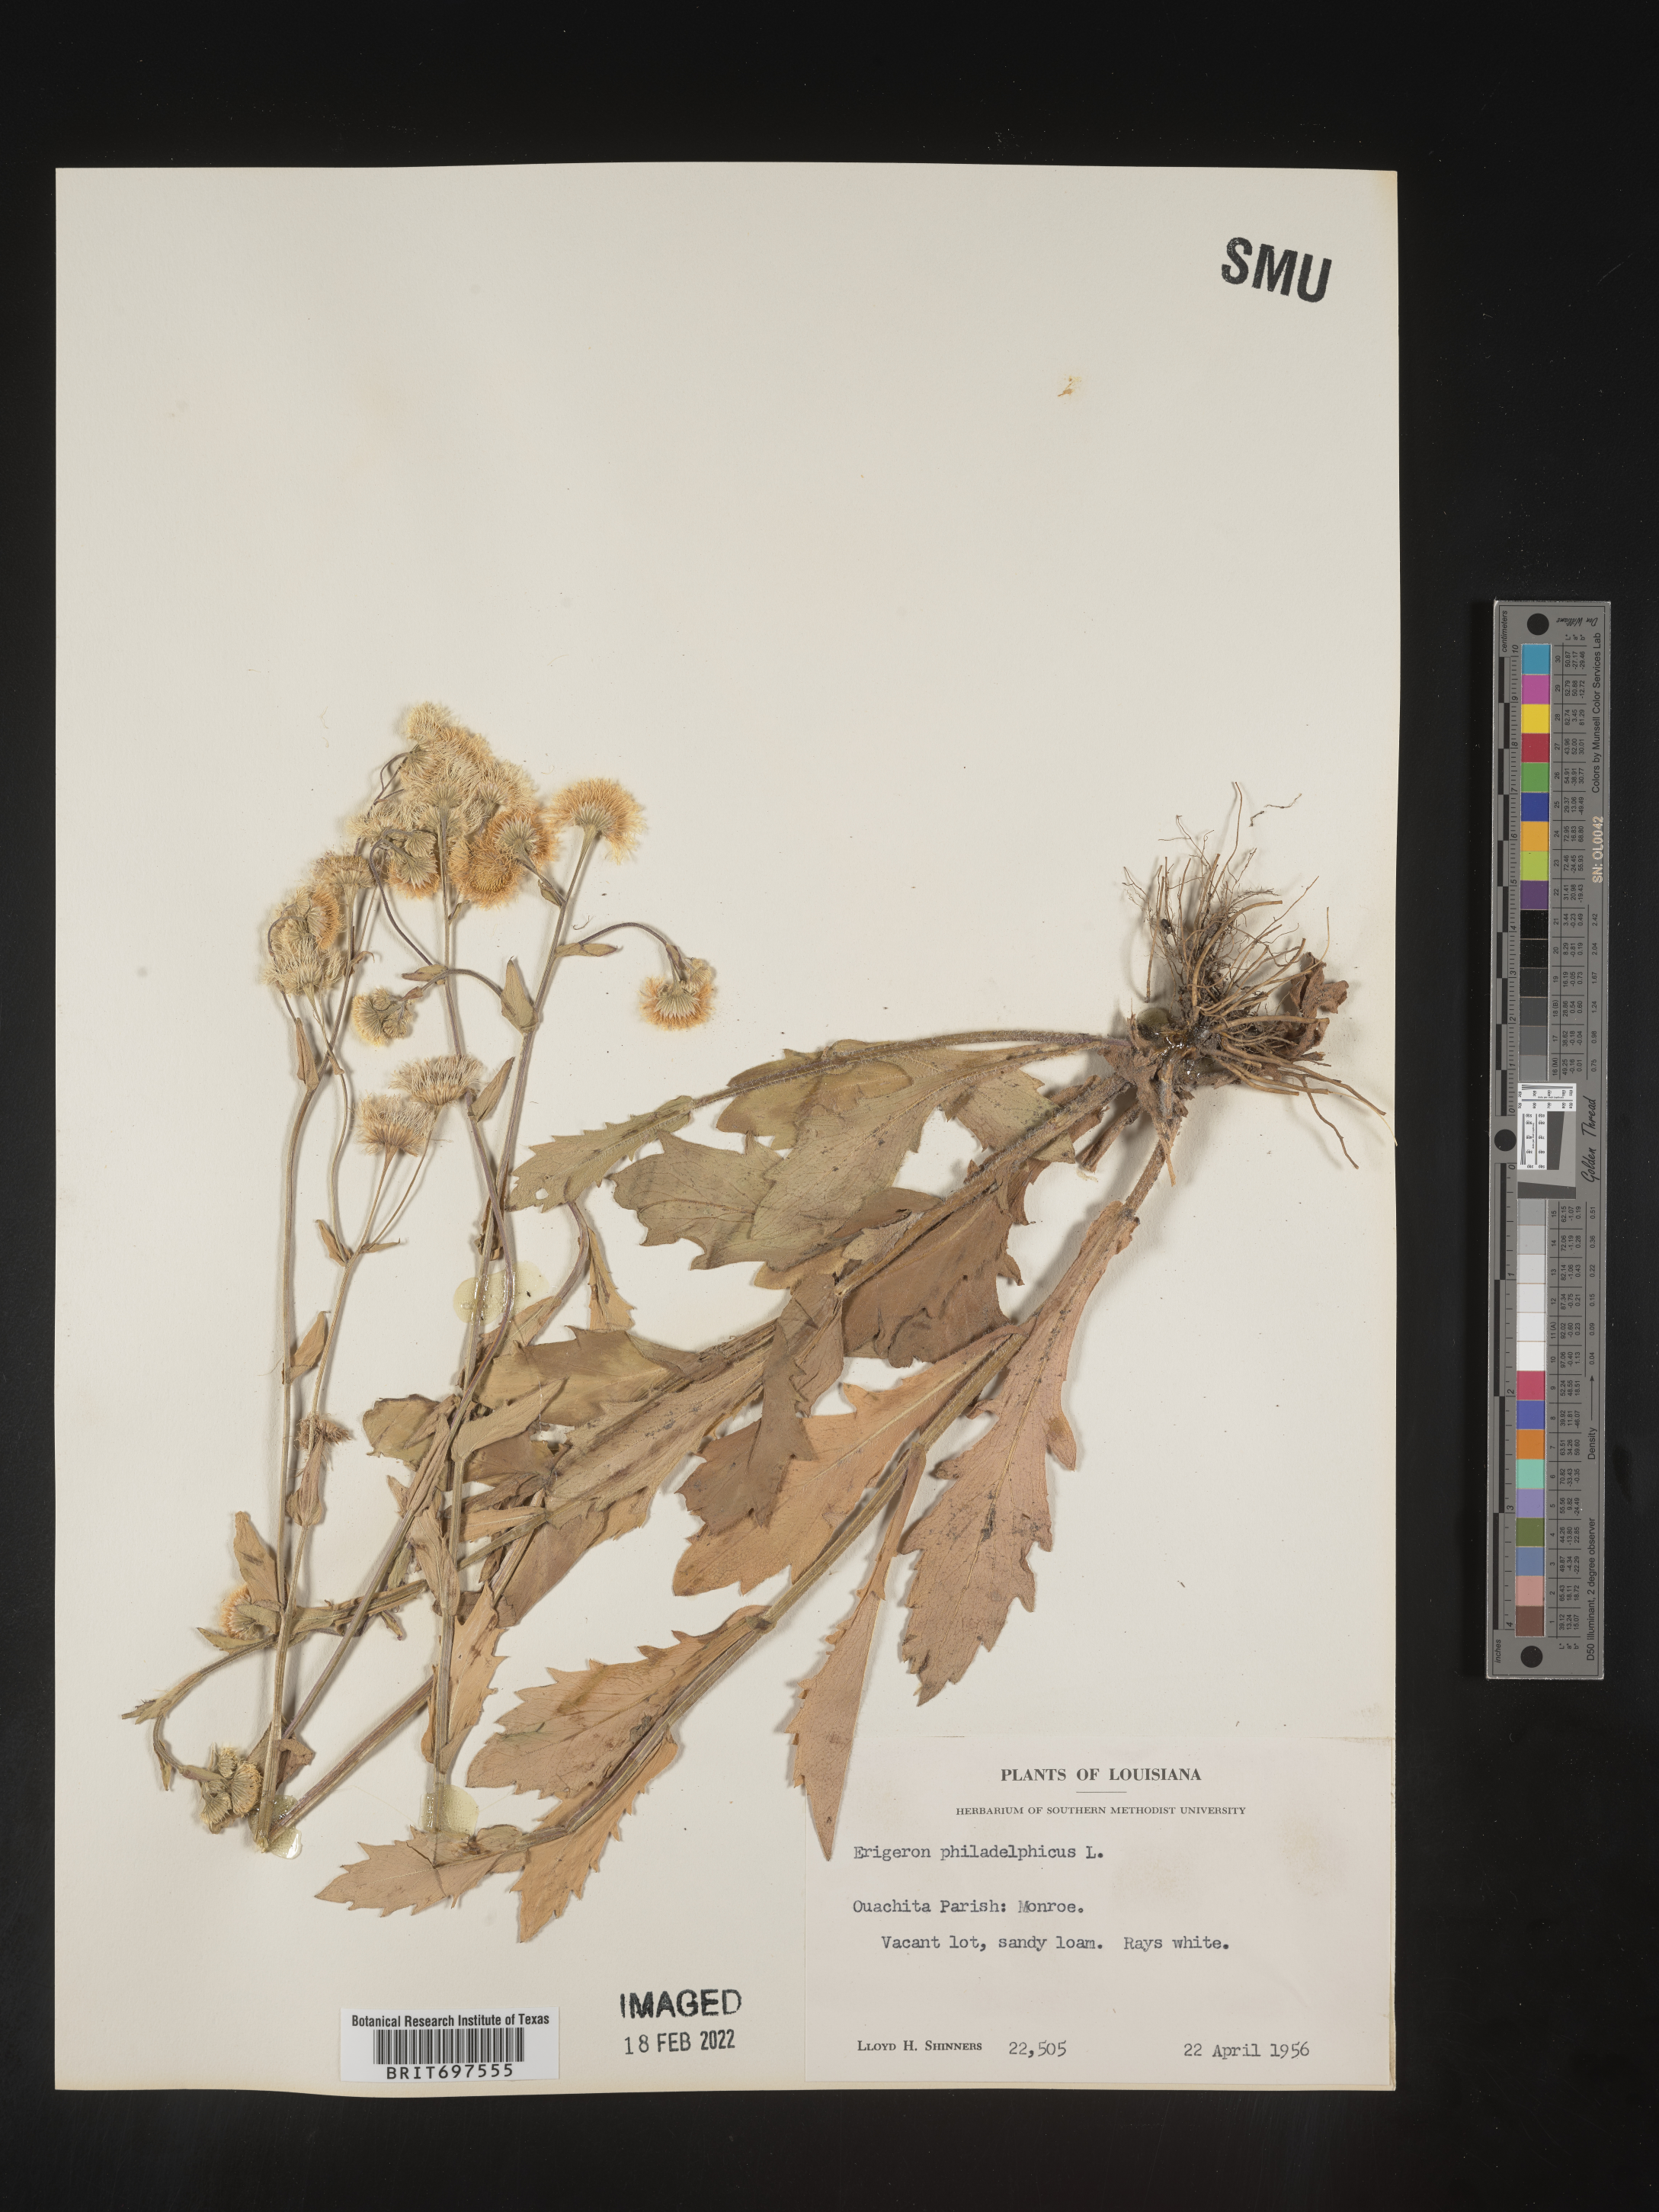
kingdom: Plantae
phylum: Tracheophyta
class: Magnoliopsida
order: Asterales
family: Asteraceae
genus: Erigeron
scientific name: Erigeron philadelphicus
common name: Robin's-plantain
